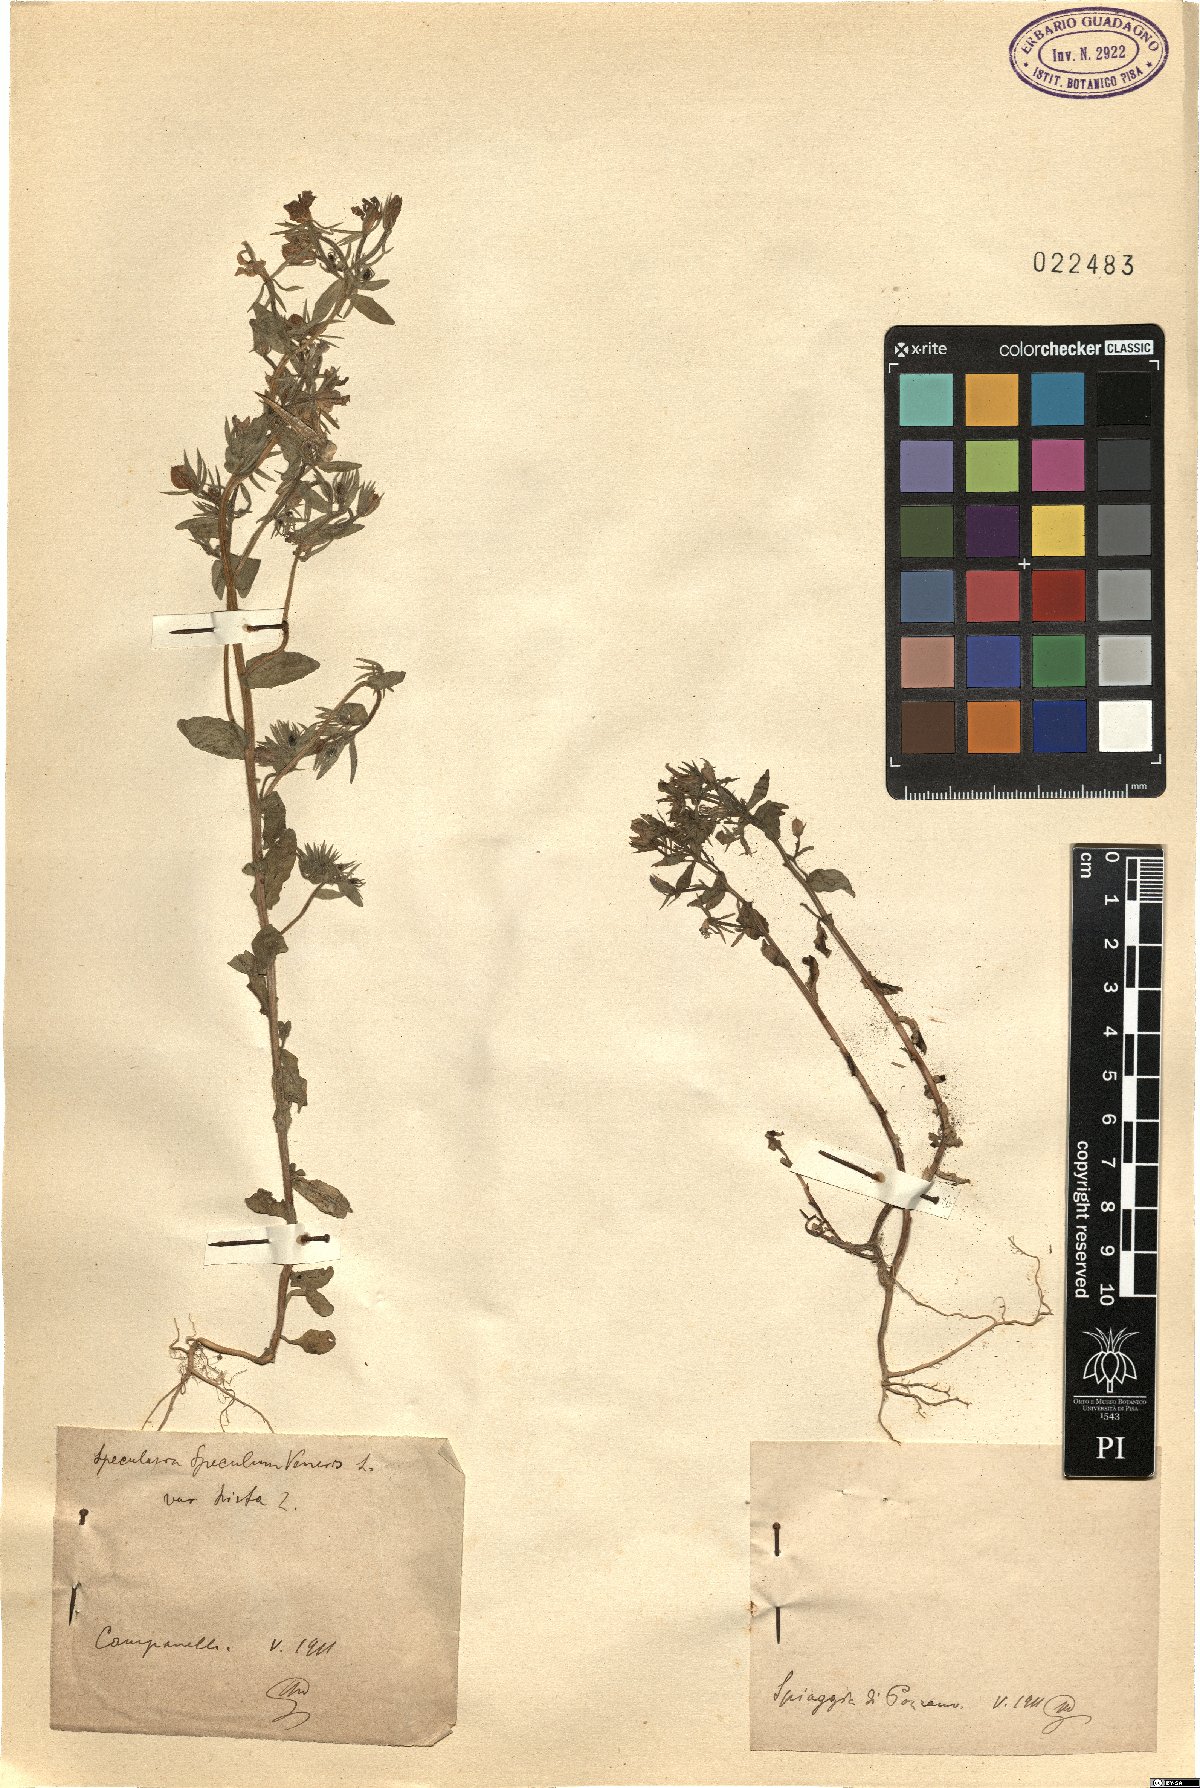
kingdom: Plantae
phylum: Tracheophyta
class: Magnoliopsida
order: Asterales
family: Campanulaceae
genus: Specularia
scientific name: Specularia
